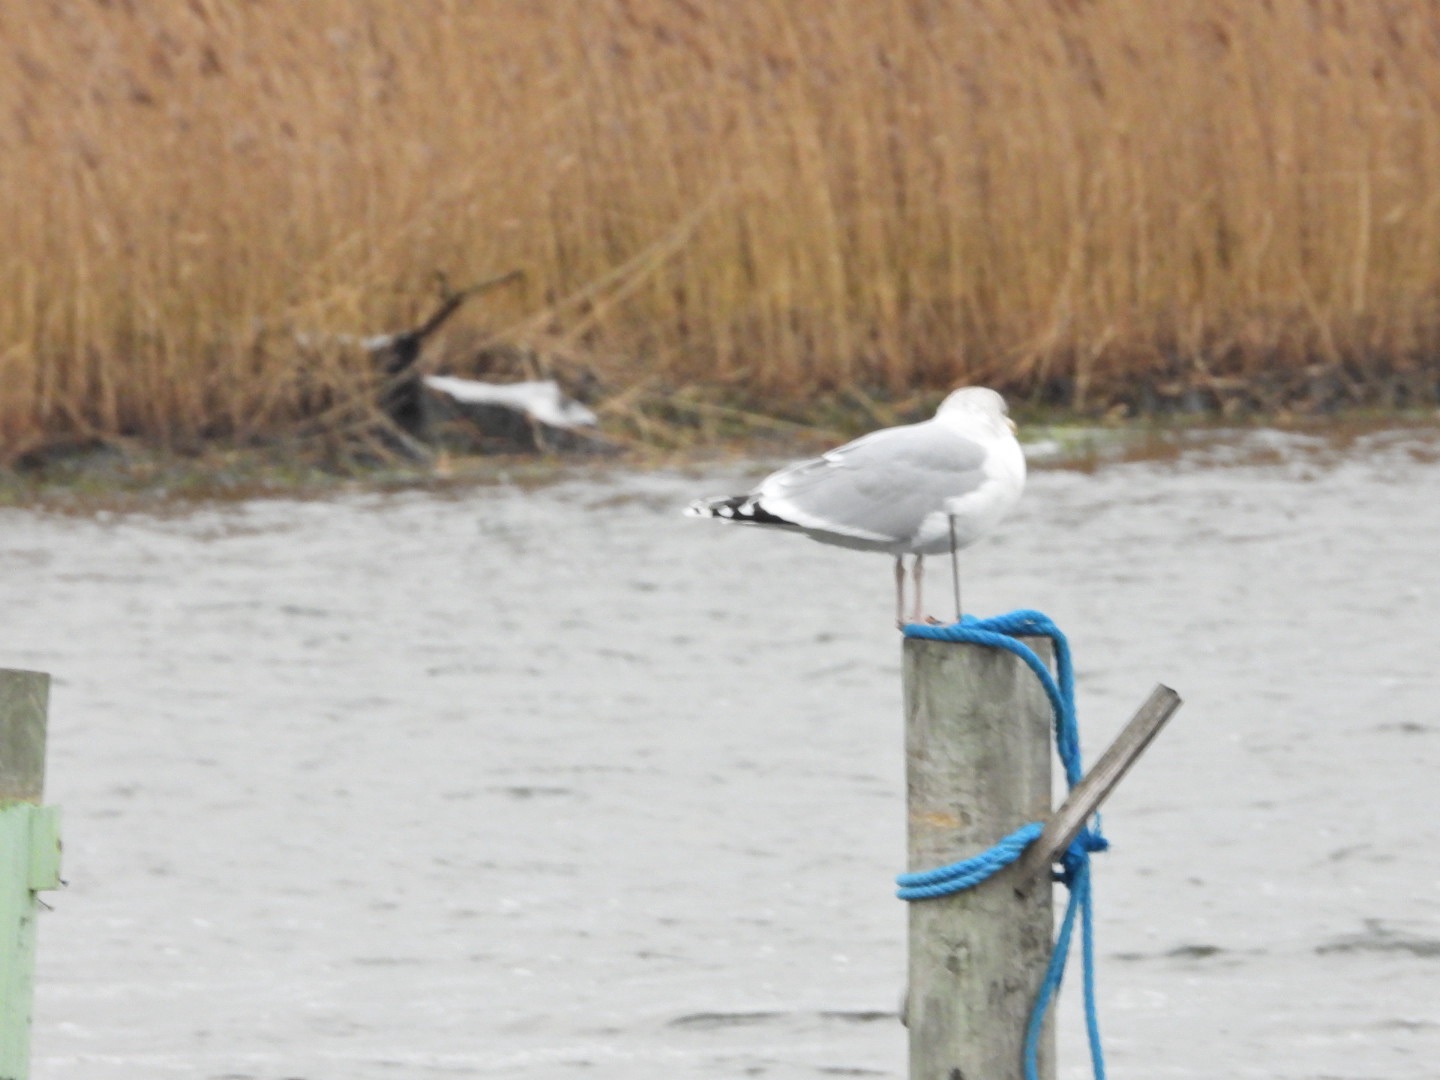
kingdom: Animalia
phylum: Chordata
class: Aves
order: Charadriiformes
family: Laridae
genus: Larus
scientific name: Larus argentatus
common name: Sølvmåge
